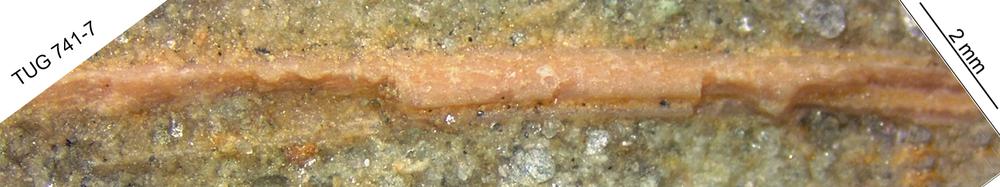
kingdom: Animalia
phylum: Chordata
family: Acanthodidae
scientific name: Acanthodidae
